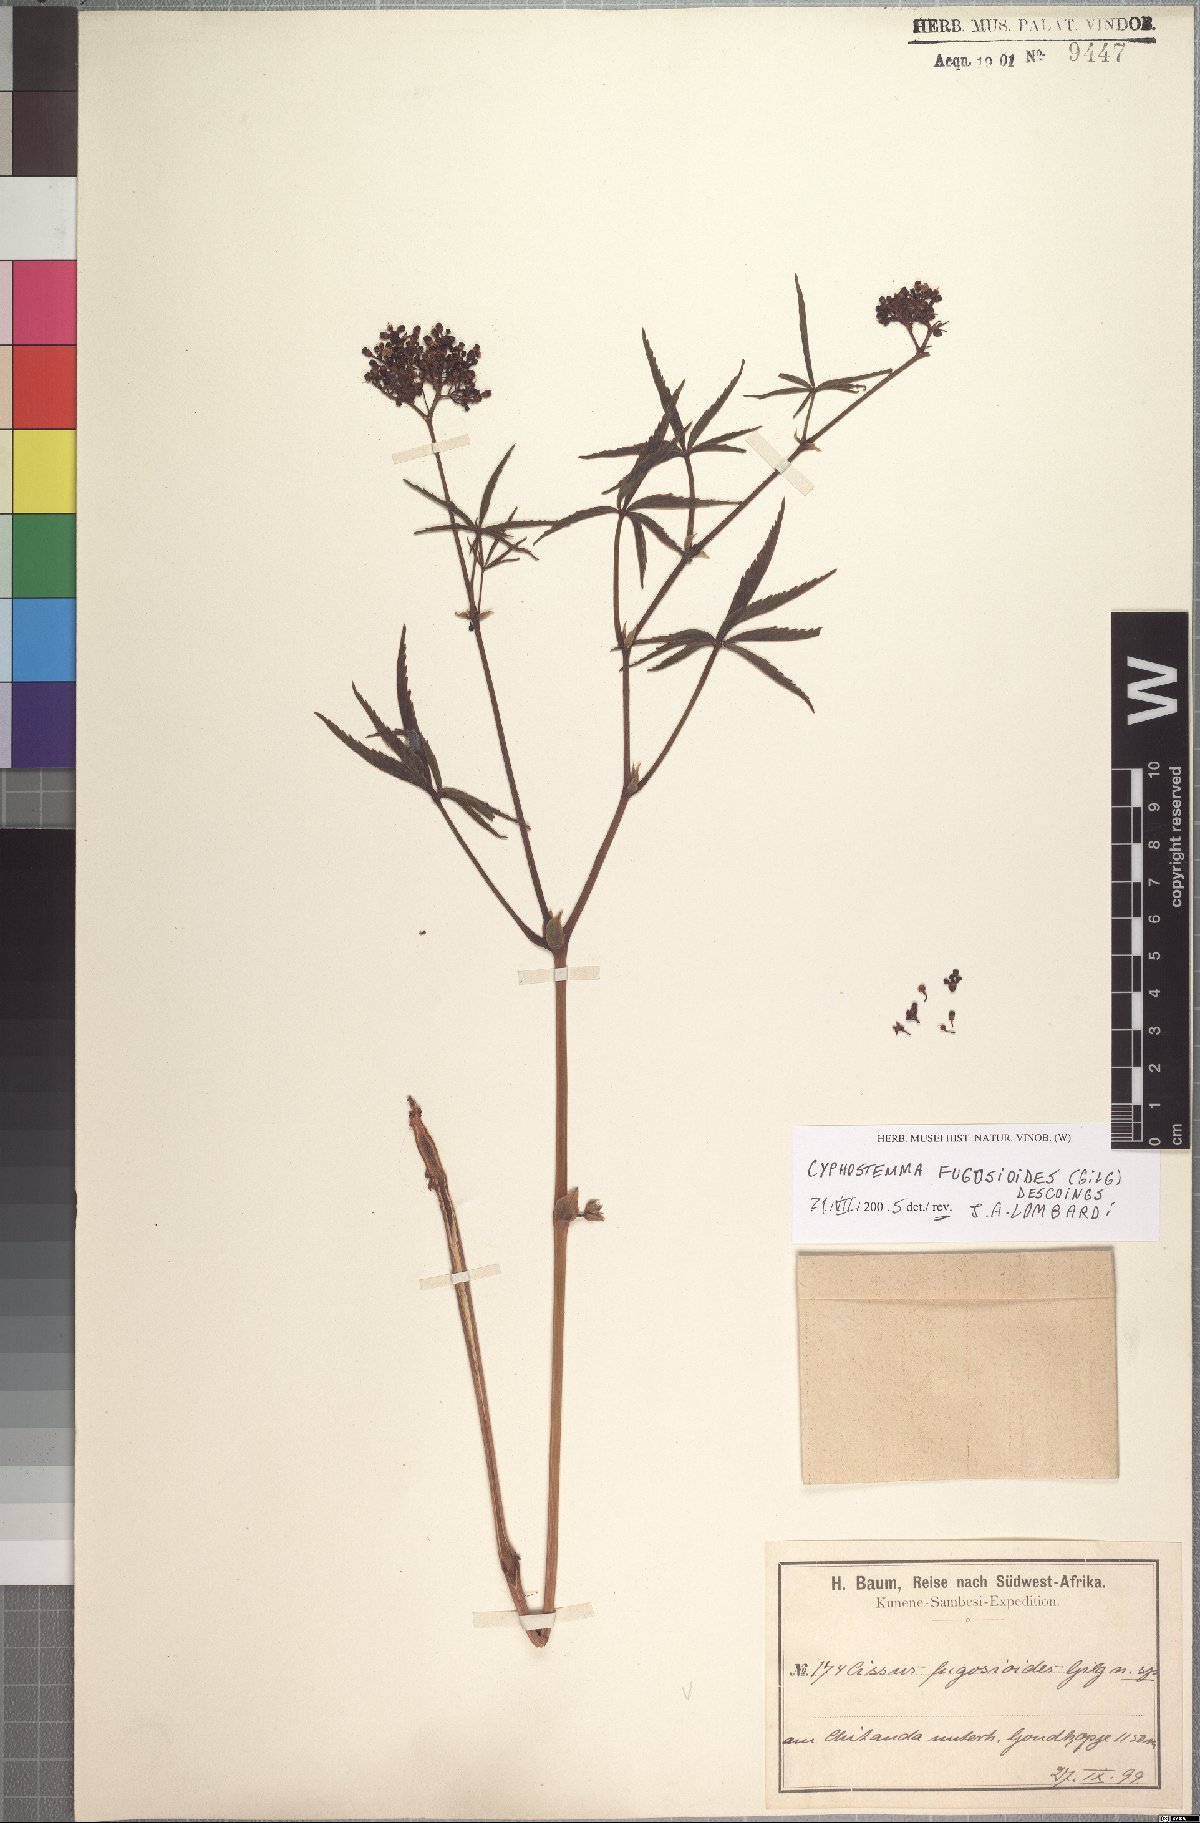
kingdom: Plantae
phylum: Tracheophyta
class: Magnoliopsida
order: Vitales
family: Vitaceae
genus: Cyphostemma
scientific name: Cyphostemma fugosioides
